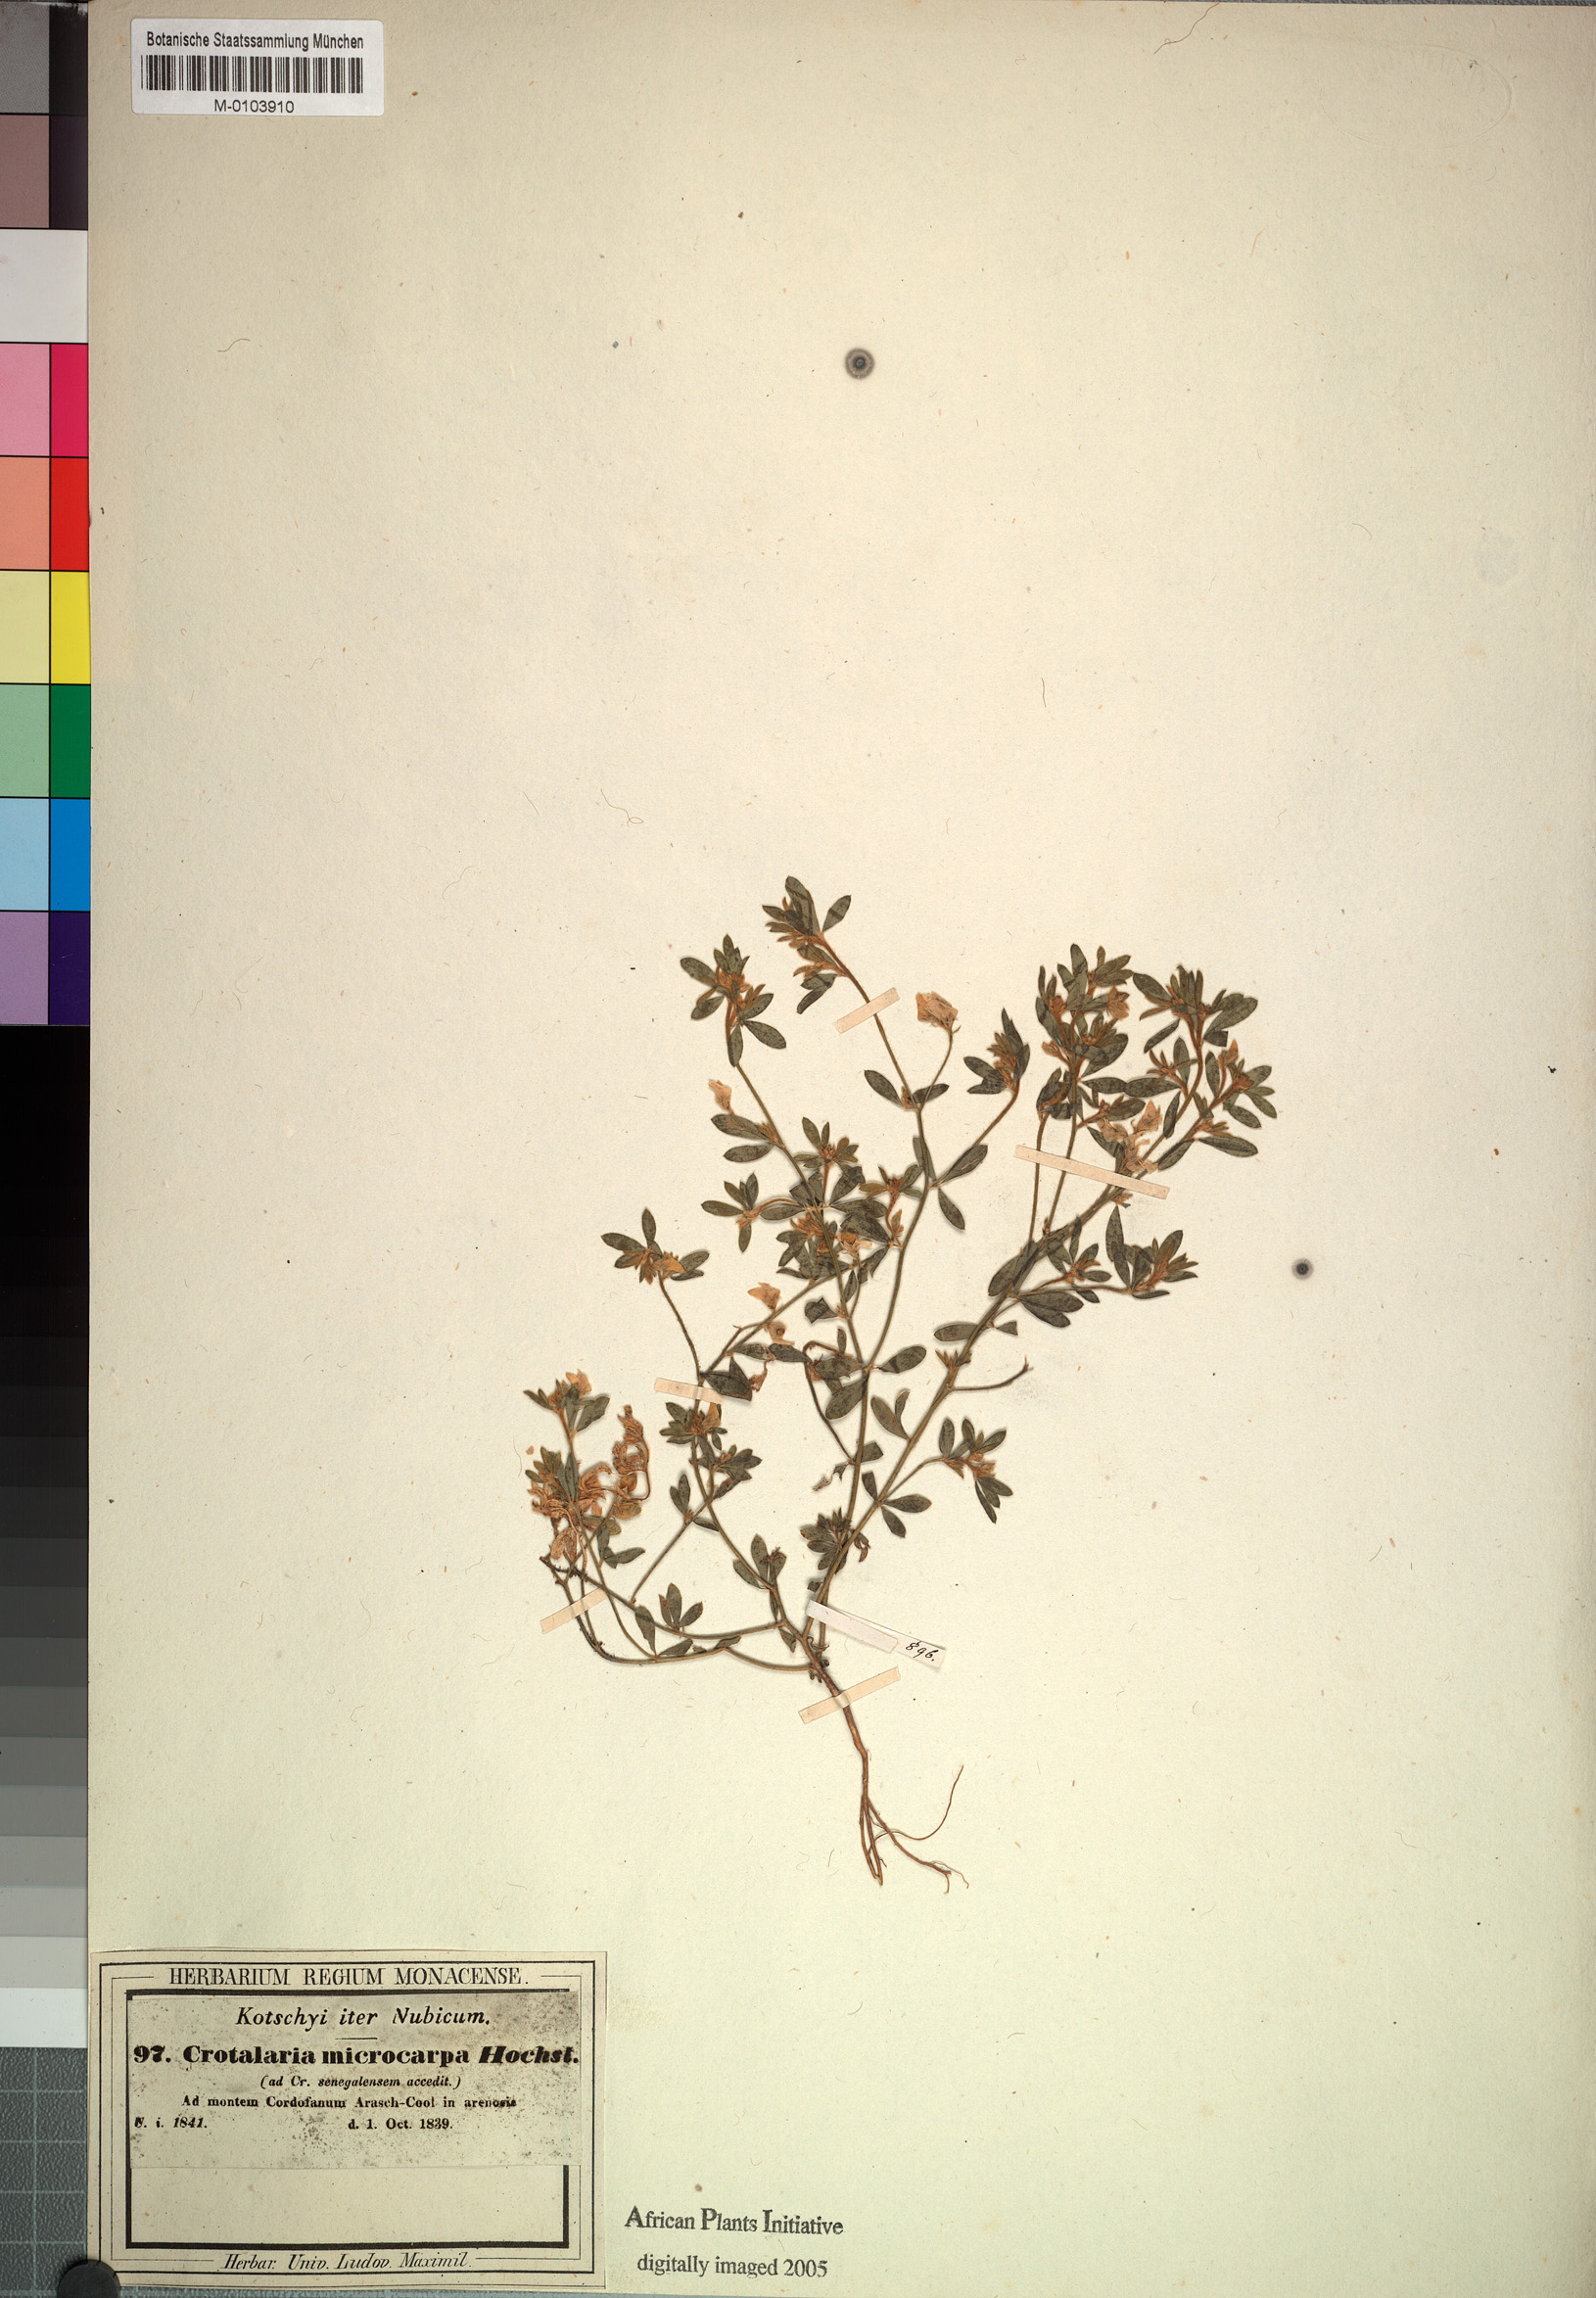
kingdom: Plantae
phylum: Tracheophyta
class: Magnoliopsida
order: Fabales
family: Fabaceae
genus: Crotalaria
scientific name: Crotalaria microcarpa
